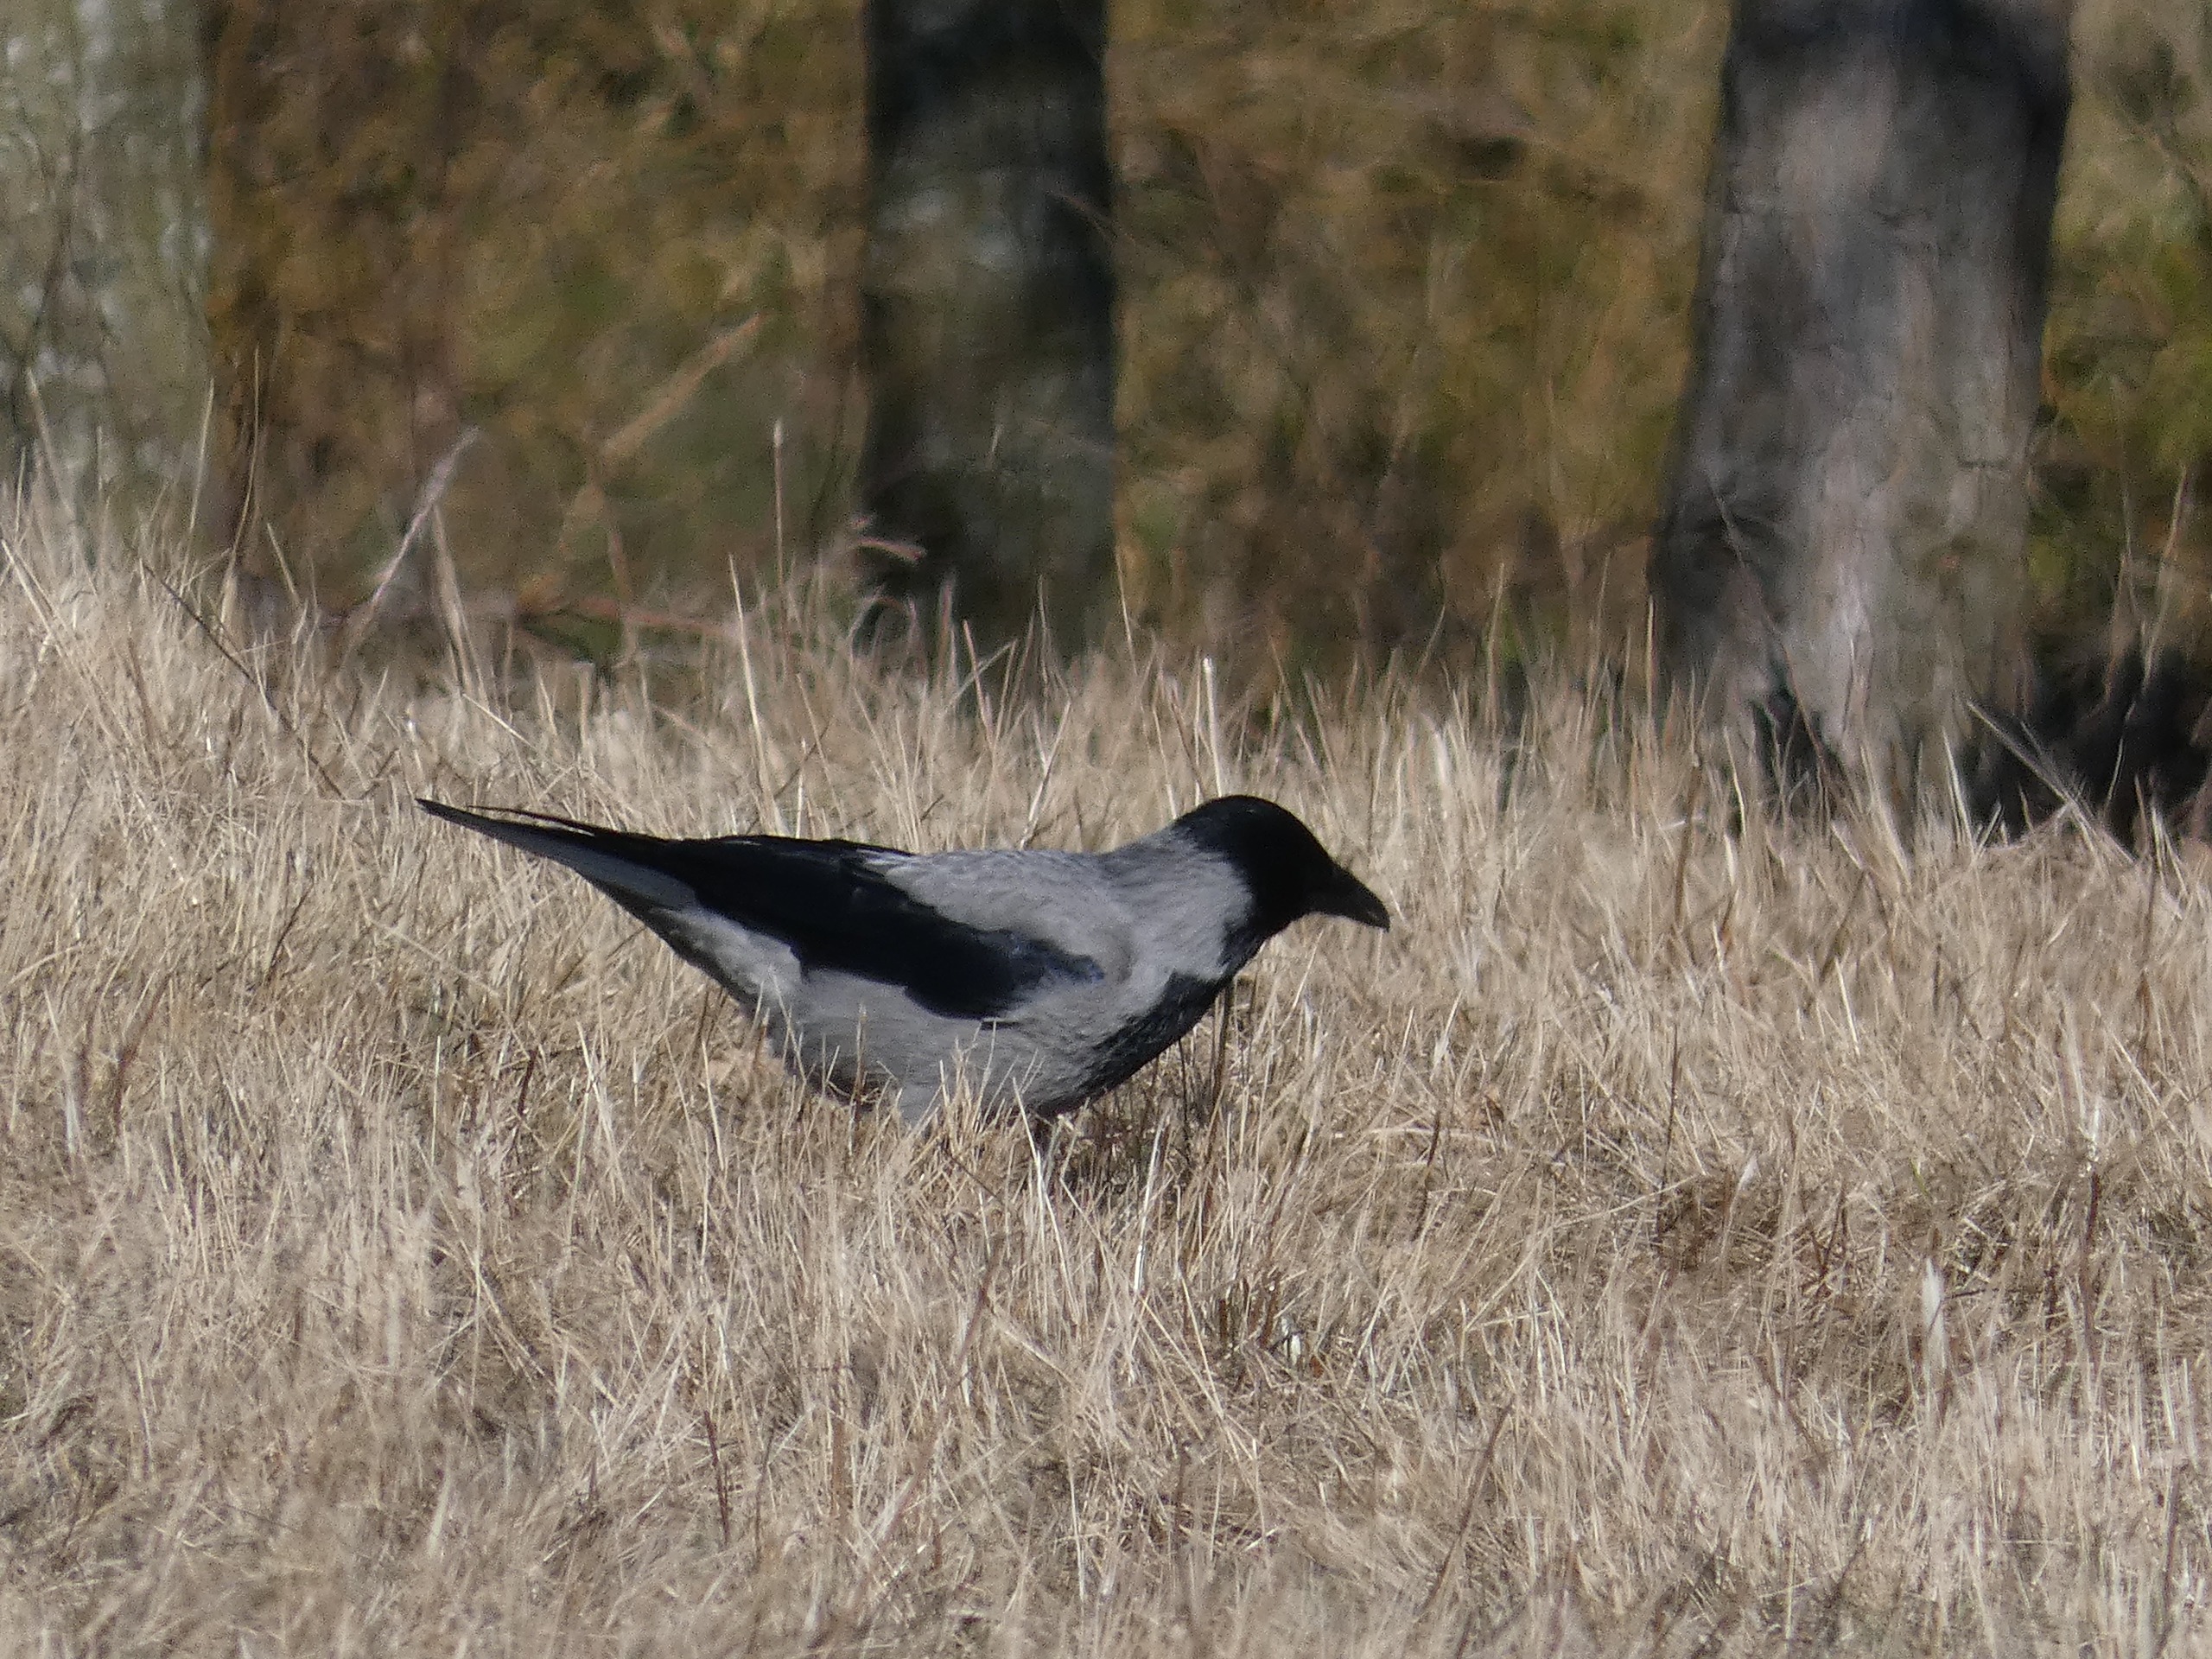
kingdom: Animalia
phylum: Chordata
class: Aves
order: Passeriformes
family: Corvidae
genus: Corvus
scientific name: Corvus cornix
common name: Gråkrage
